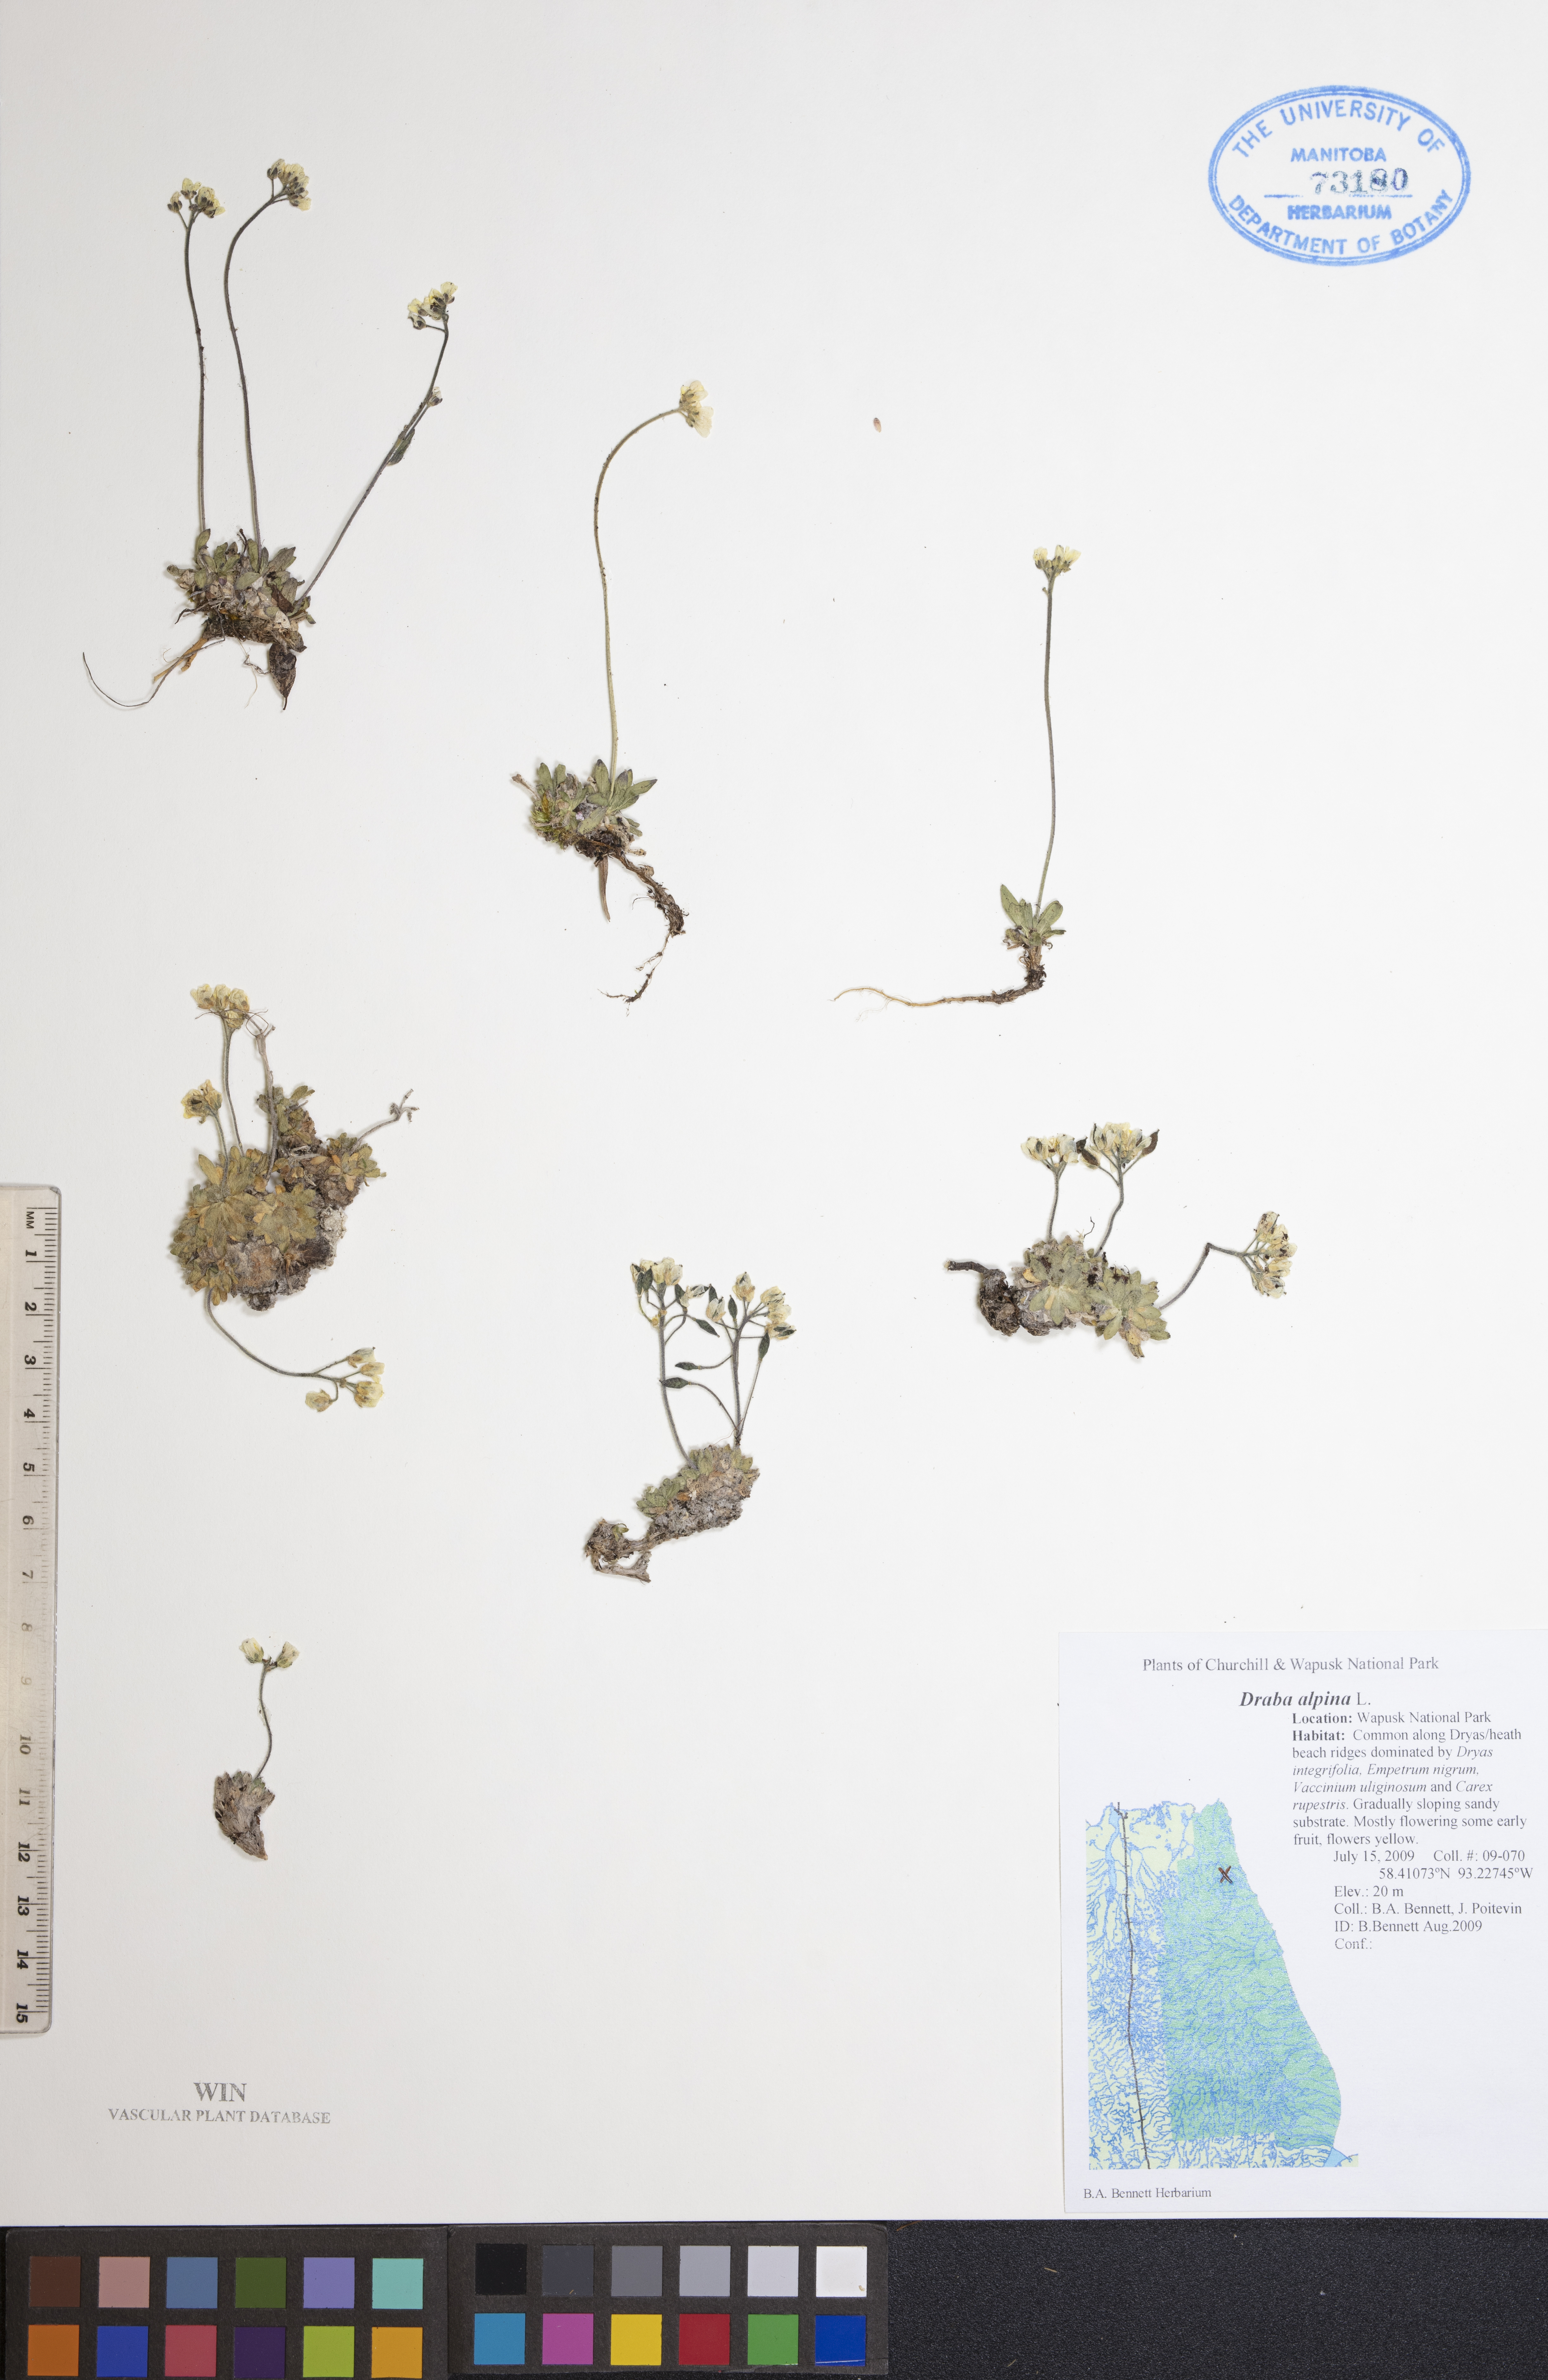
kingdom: Plantae
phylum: Tracheophyta
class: Magnoliopsida
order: Brassicales
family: Brassicaceae
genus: Draba
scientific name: Draba alpina
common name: Alpine draba
